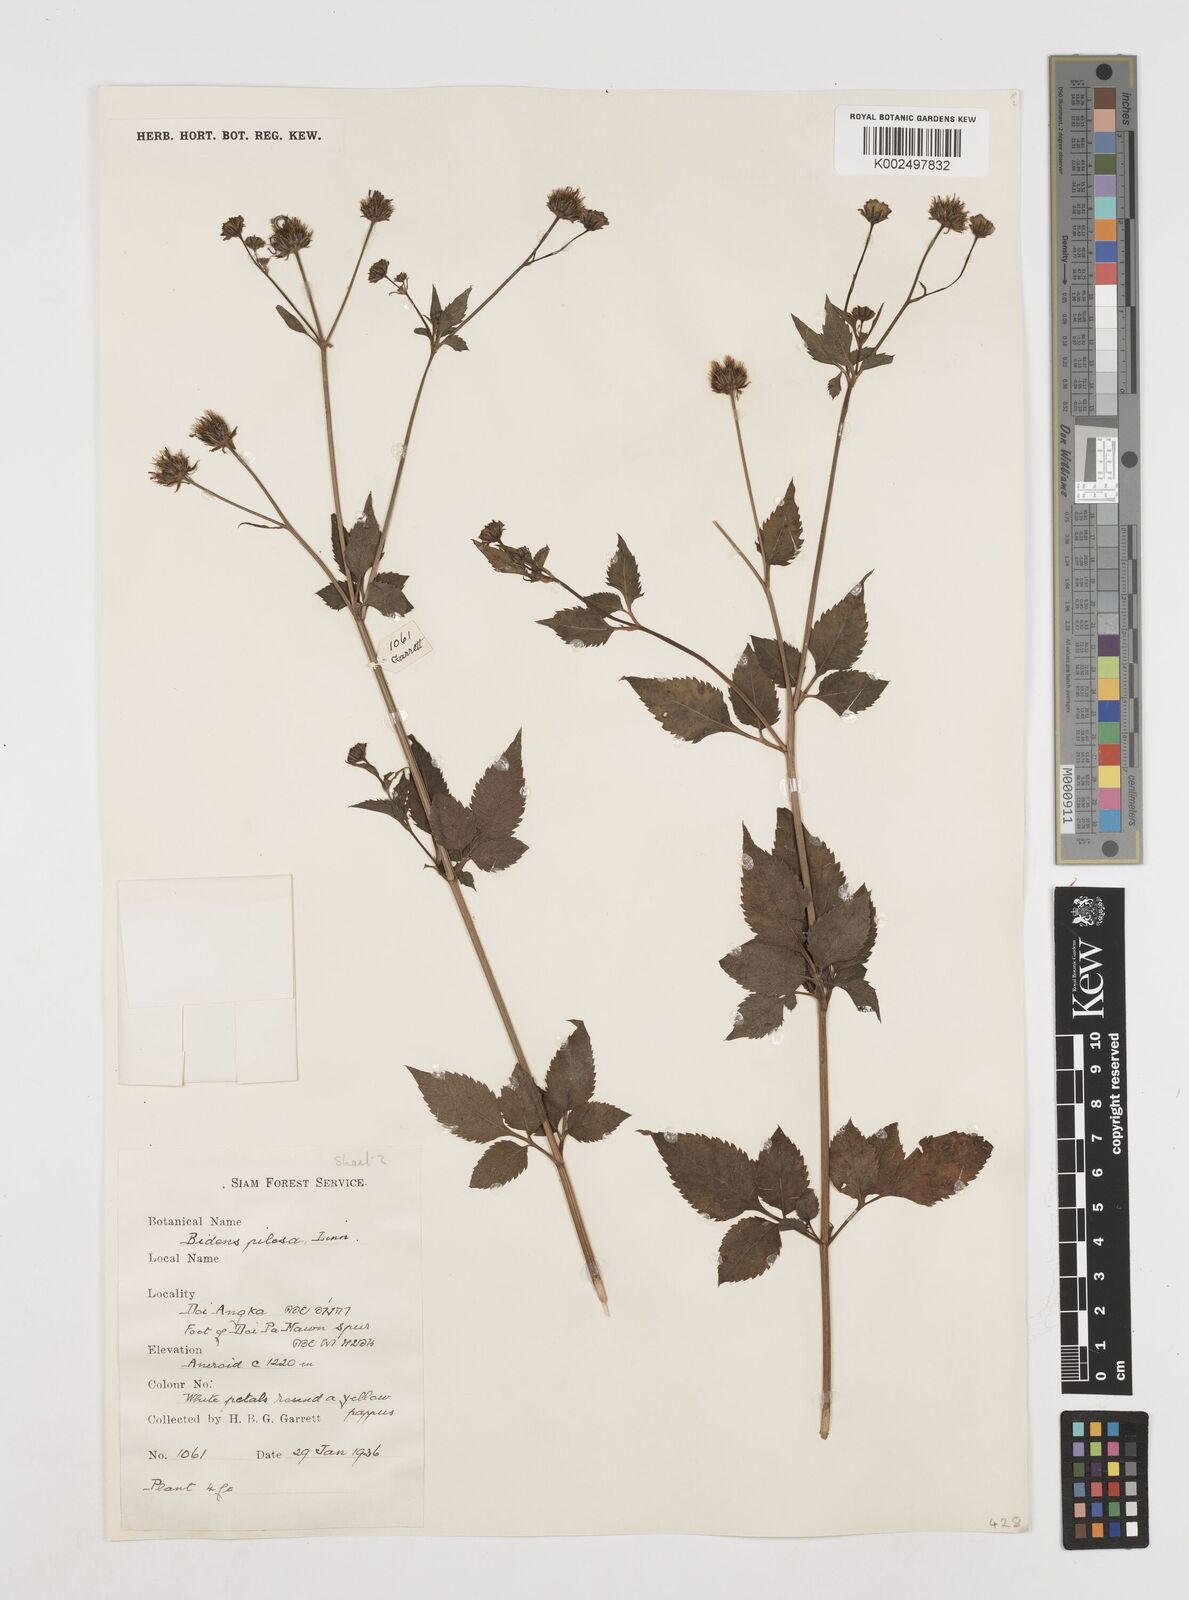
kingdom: Plantae
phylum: Tracheophyta
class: Magnoliopsida
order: Asterales
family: Asteraceae
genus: Bidens
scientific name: Bidens pilosa
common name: Black-jack
